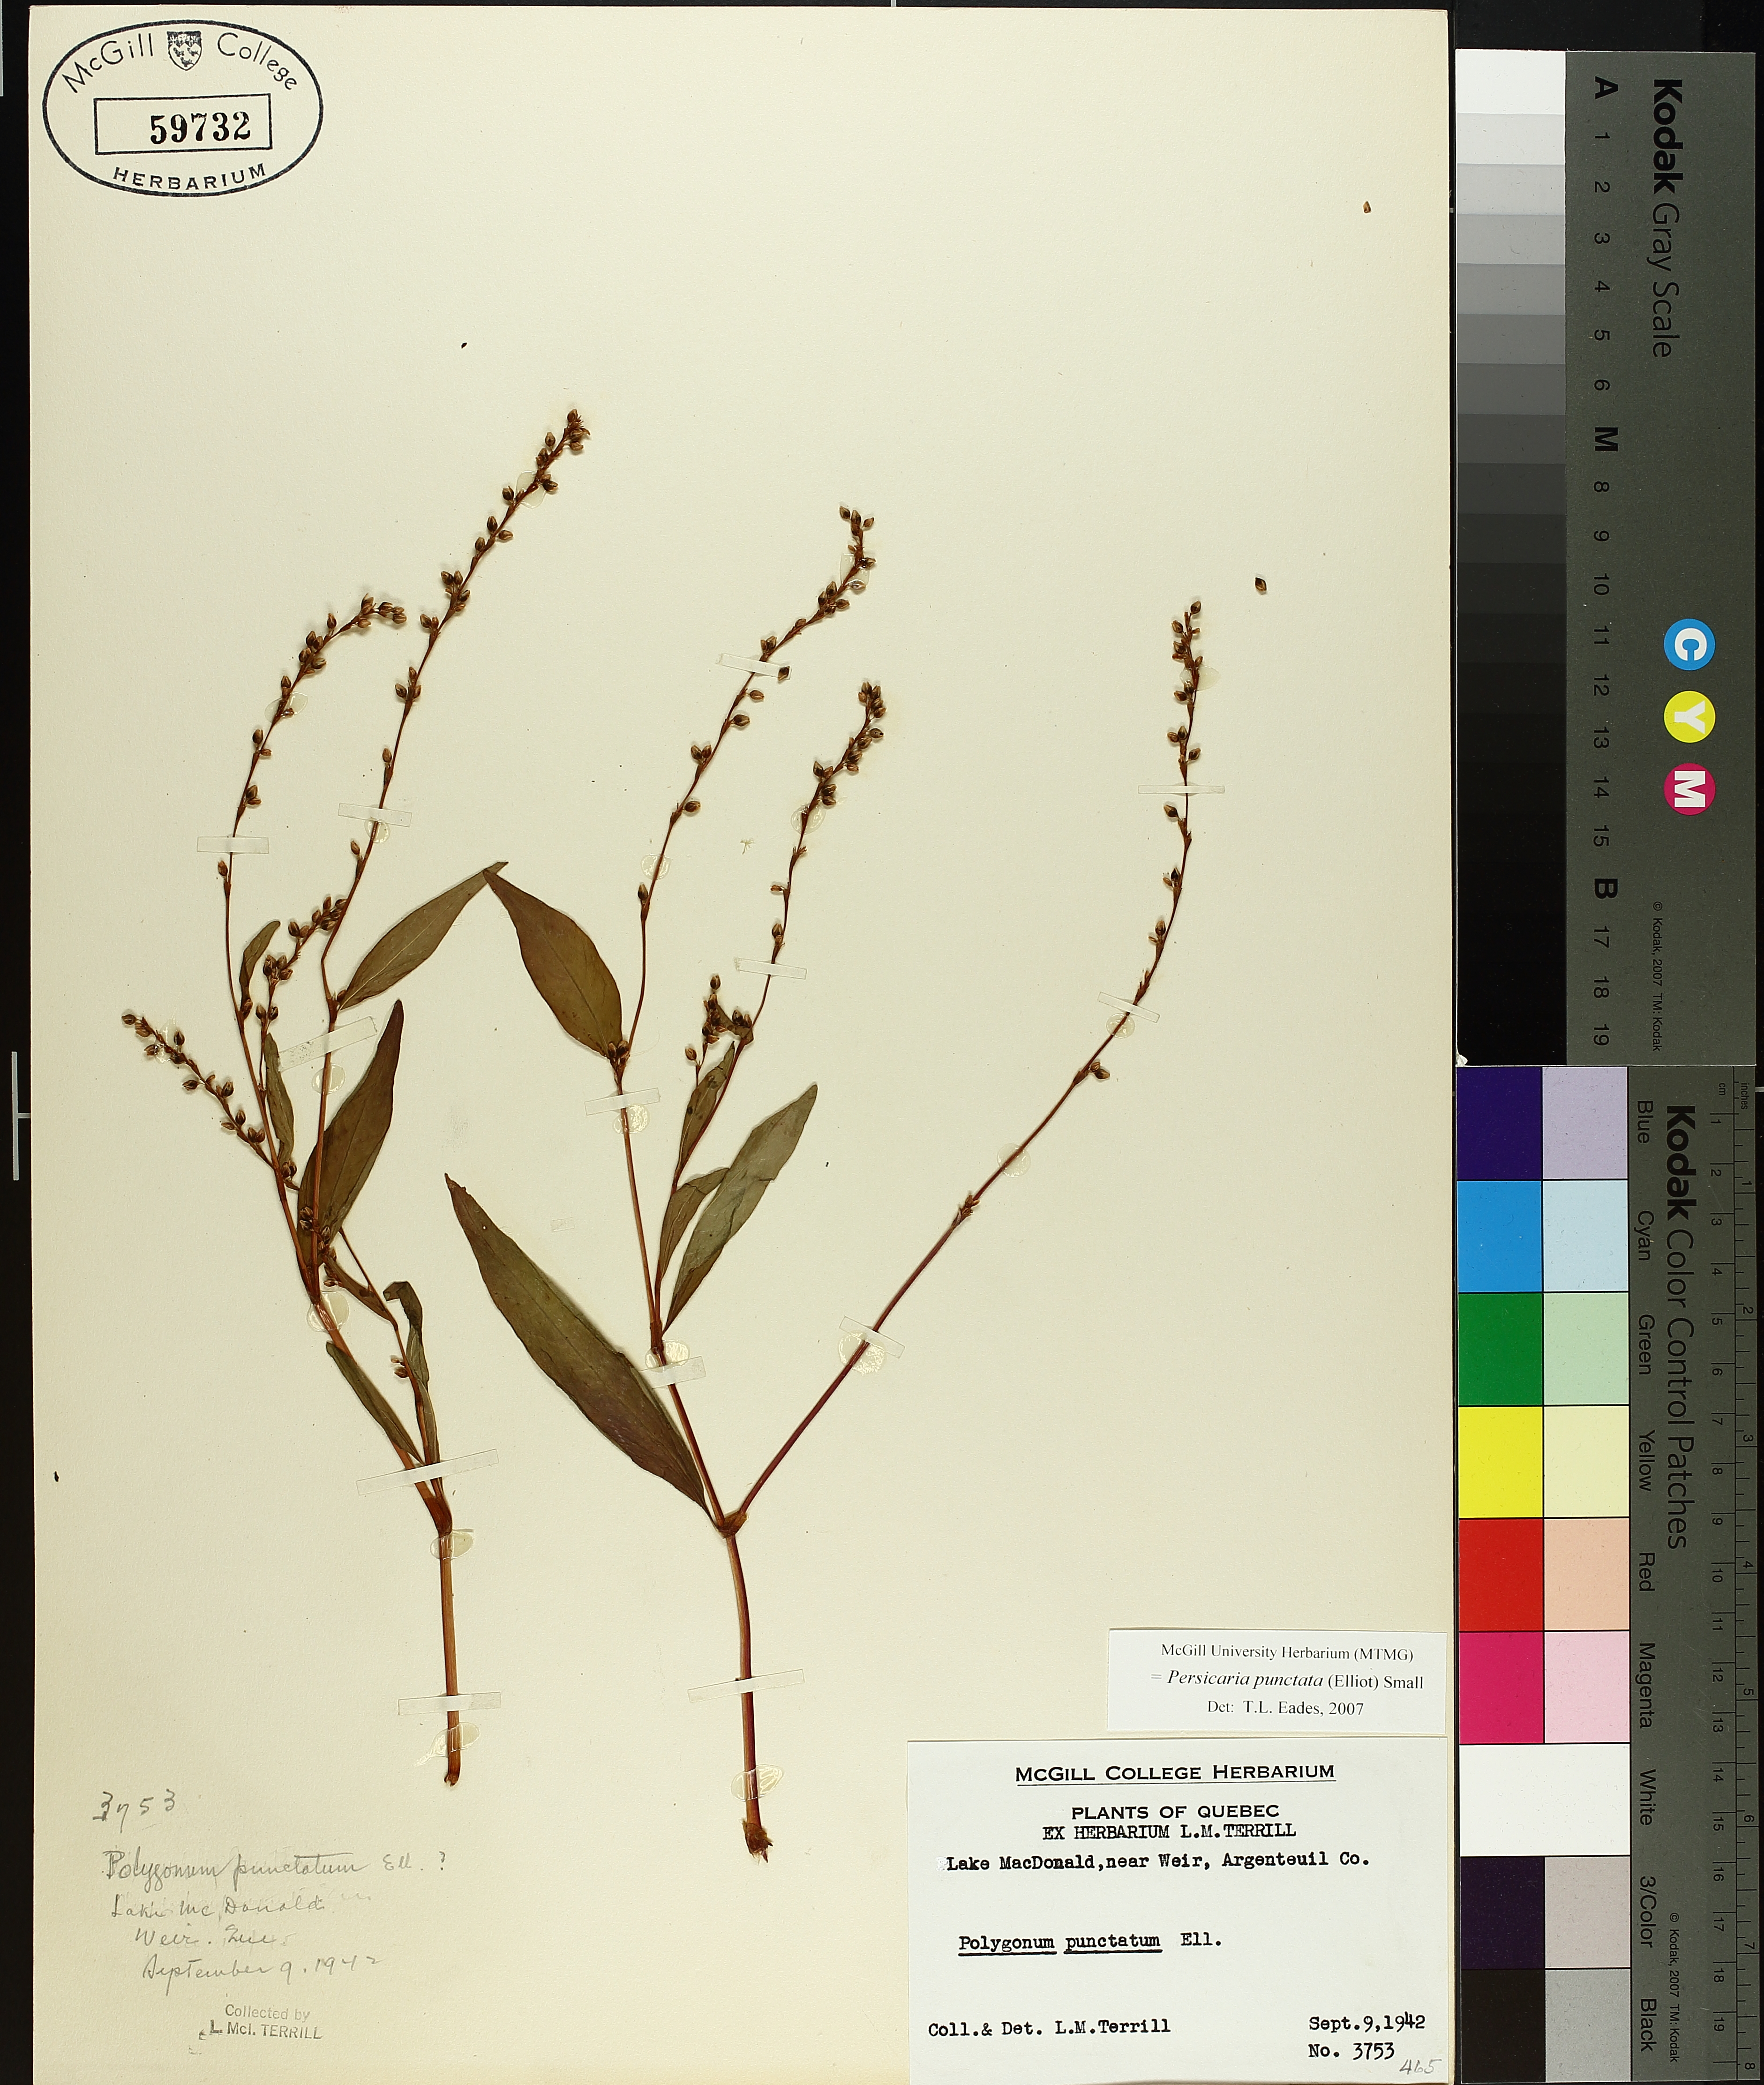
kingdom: Plantae
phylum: Tracheophyta
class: Magnoliopsida
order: Caryophyllales
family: Polygonaceae
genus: Persicaria
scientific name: Persicaria punctata
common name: Dotted smartweed
